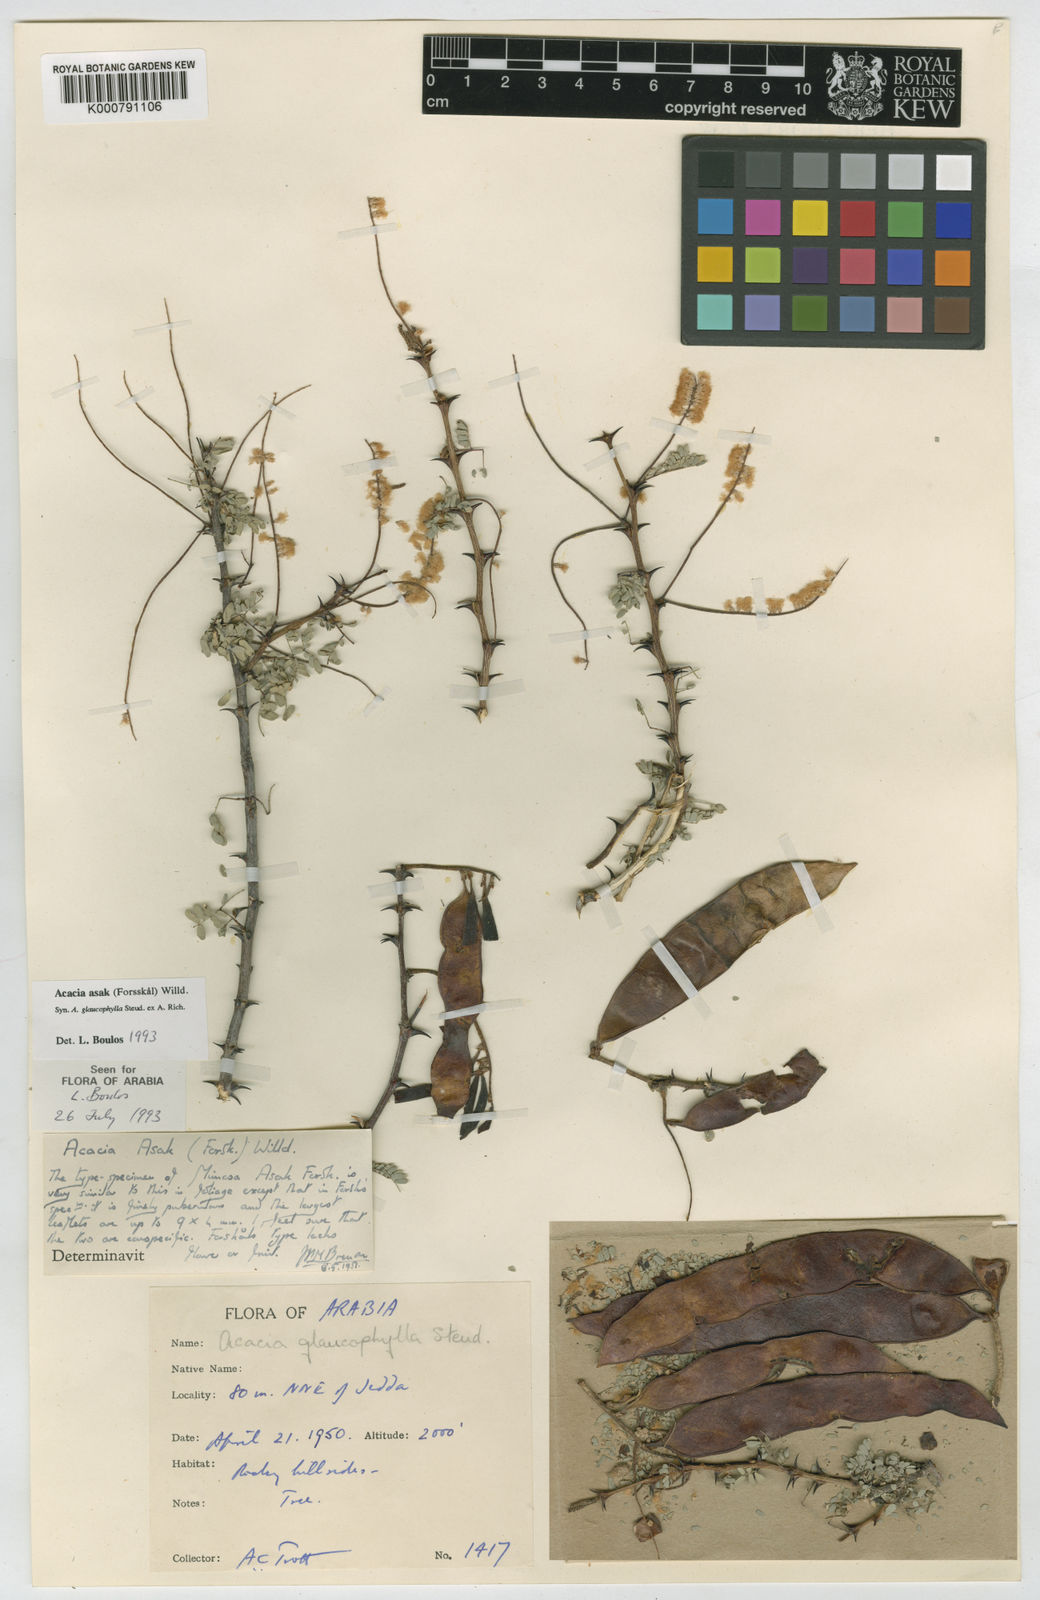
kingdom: Plantae
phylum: Tracheophyta
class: Magnoliopsida
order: Fabales
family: Fabaceae
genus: Senegalia
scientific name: Senegalia asak
